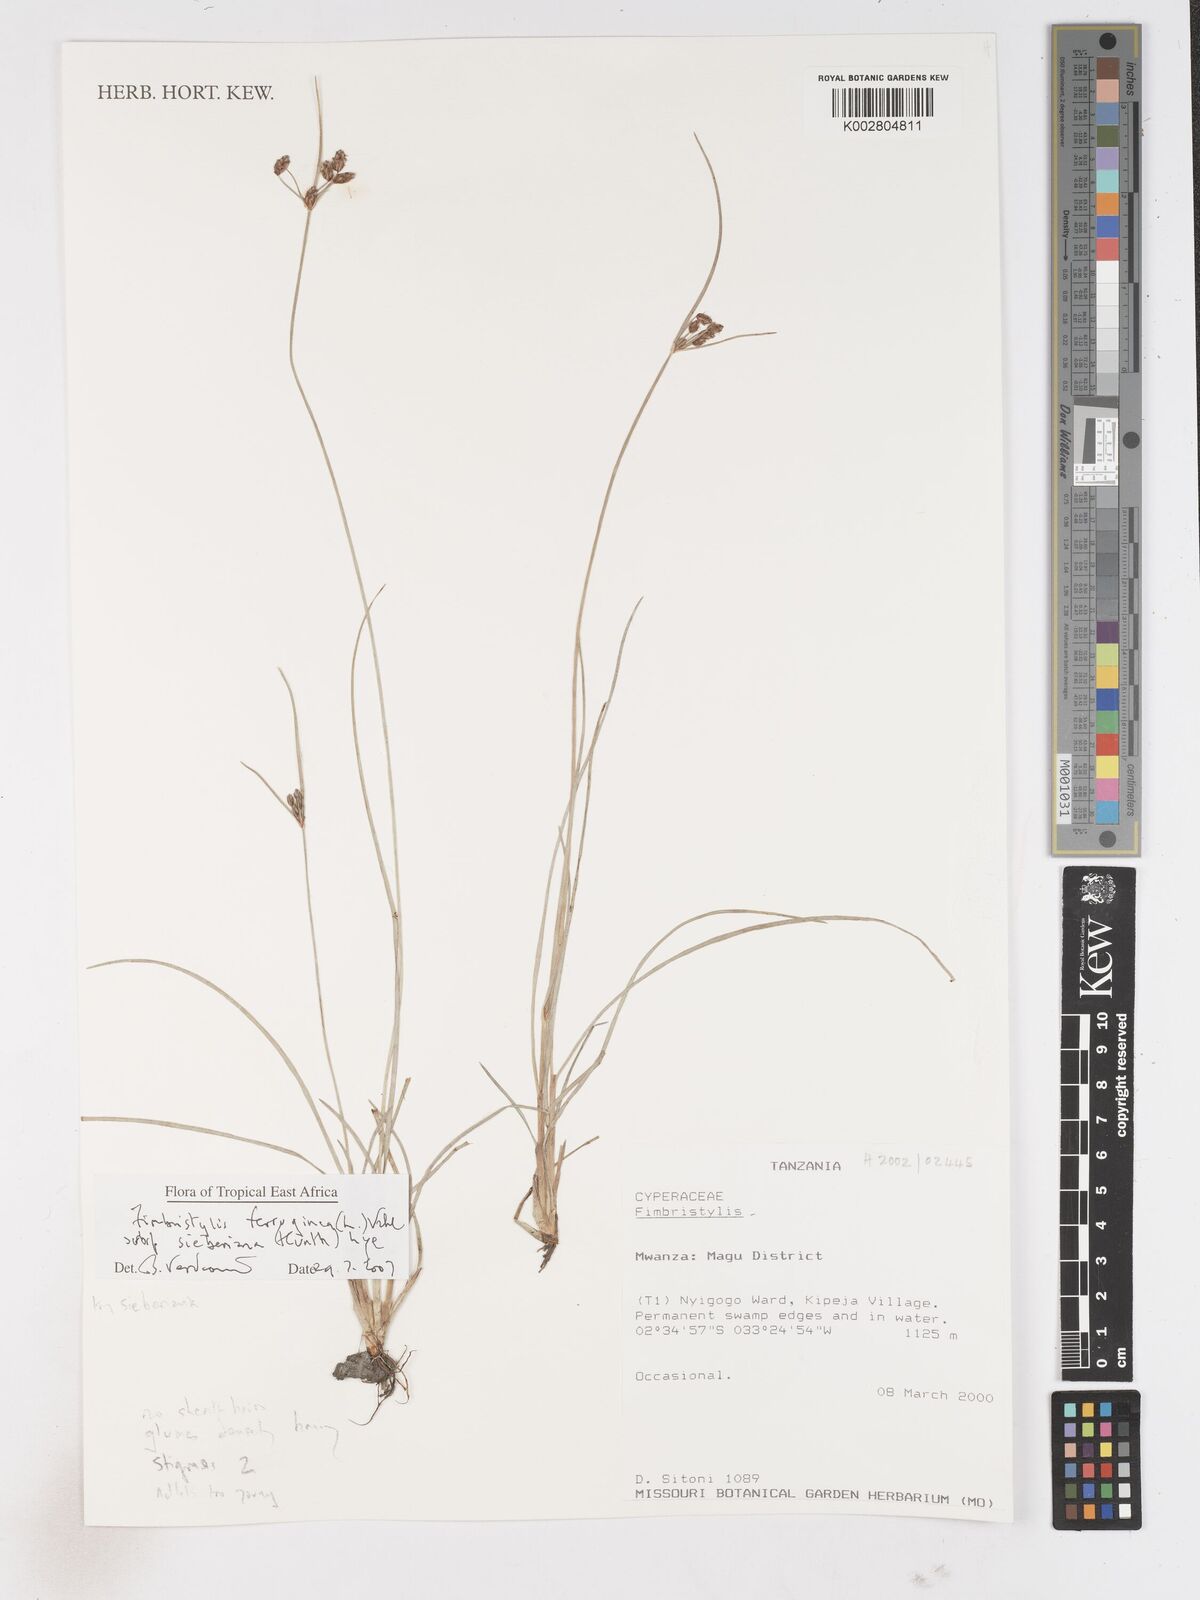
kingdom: Plantae
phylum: Tracheophyta
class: Liliopsida
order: Poales
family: Cyperaceae
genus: Fimbristylis
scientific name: Fimbristylis ferruginea
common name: West indian fimbry
